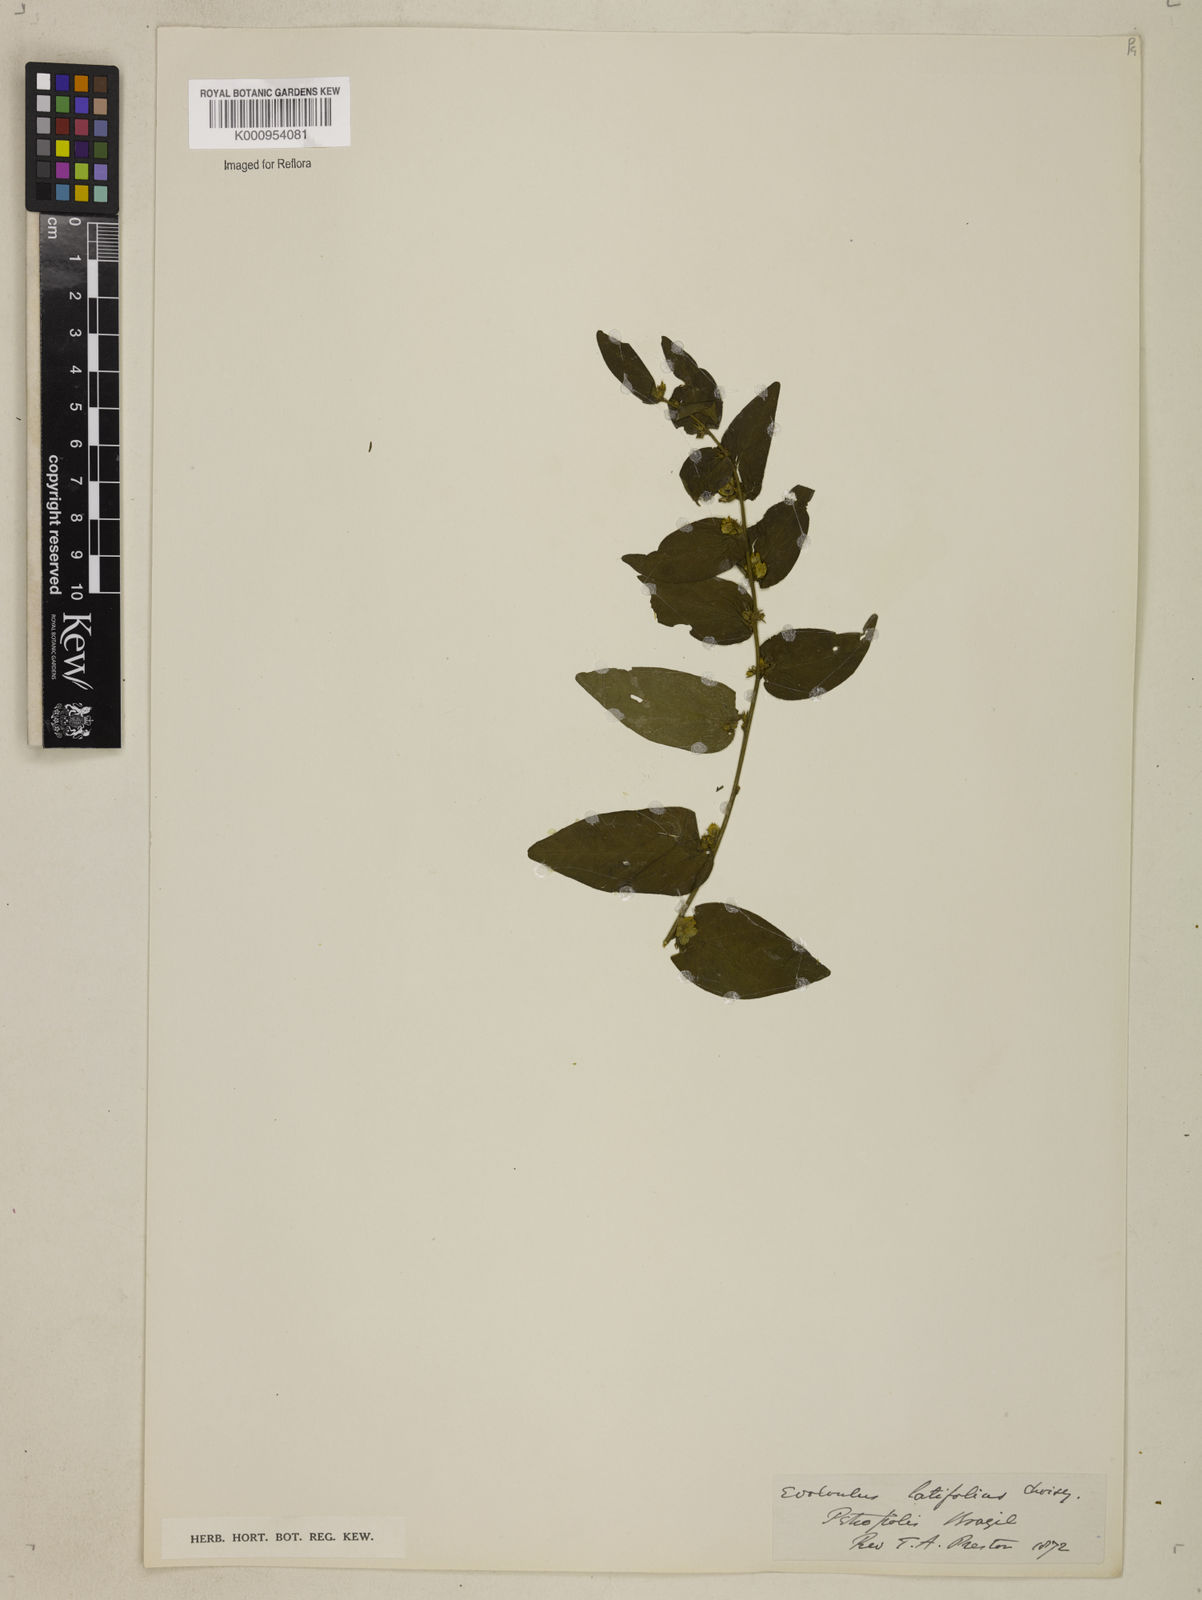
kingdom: Plantae
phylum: Tracheophyta
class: Magnoliopsida
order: Solanales
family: Convolvulaceae
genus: Evolvulus
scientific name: Evolvulus latifolius
